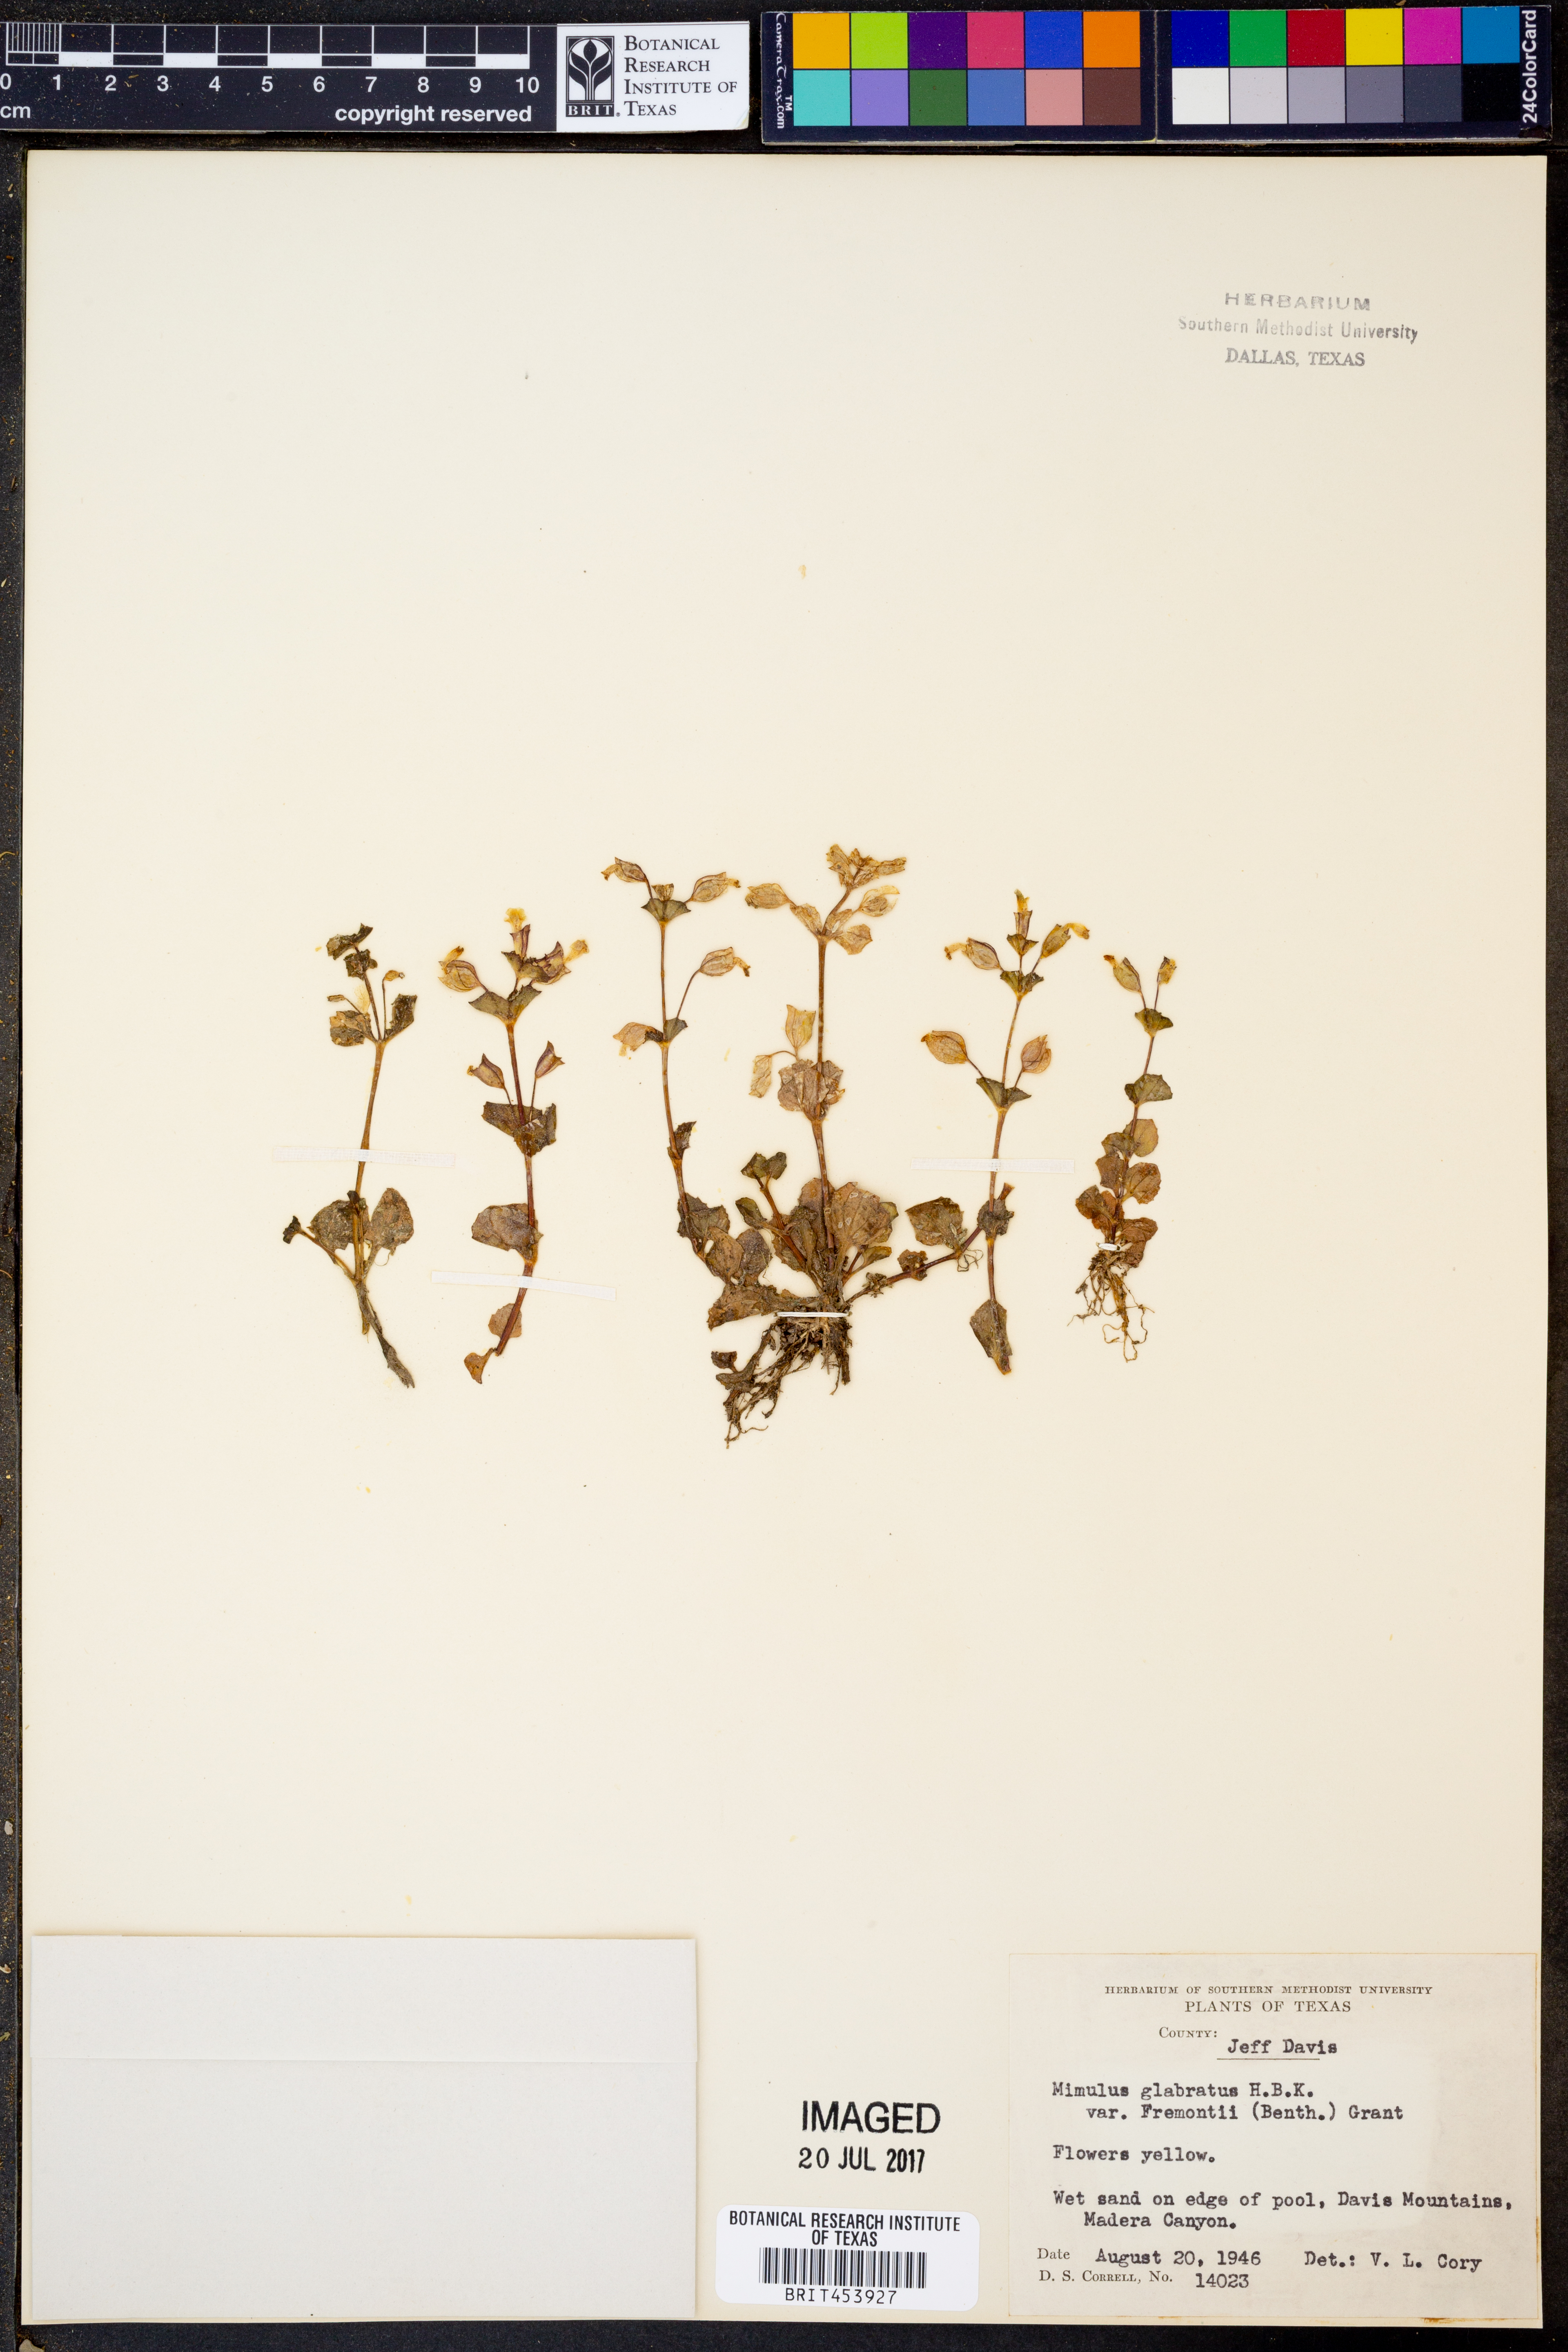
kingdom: Plantae
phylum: Tracheophyta
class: Magnoliopsida
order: Lamiales
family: Phrymaceae
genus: Erythranthe
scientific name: Erythranthe geyeri
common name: Geyer's monkeyflower
